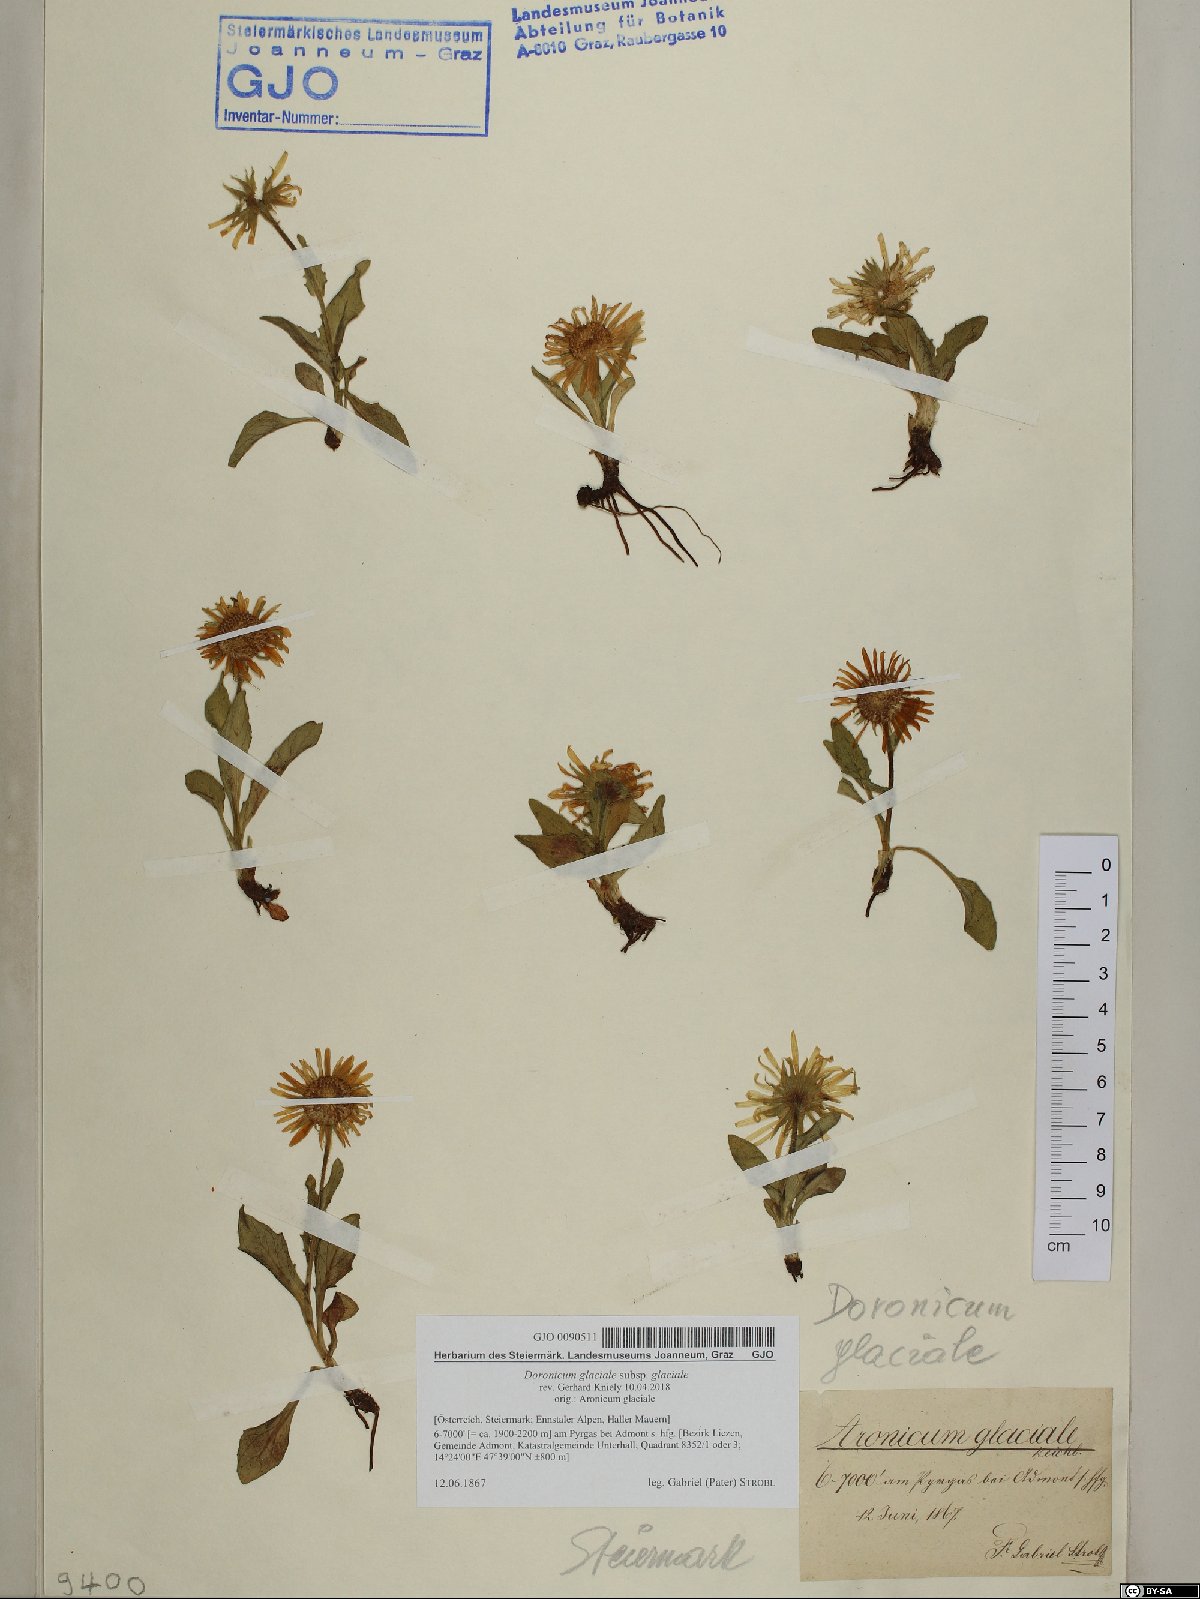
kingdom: Plantae
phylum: Tracheophyta
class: Magnoliopsida
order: Asterales
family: Asteraceae
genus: Doronicum
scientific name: Doronicum glaciale
